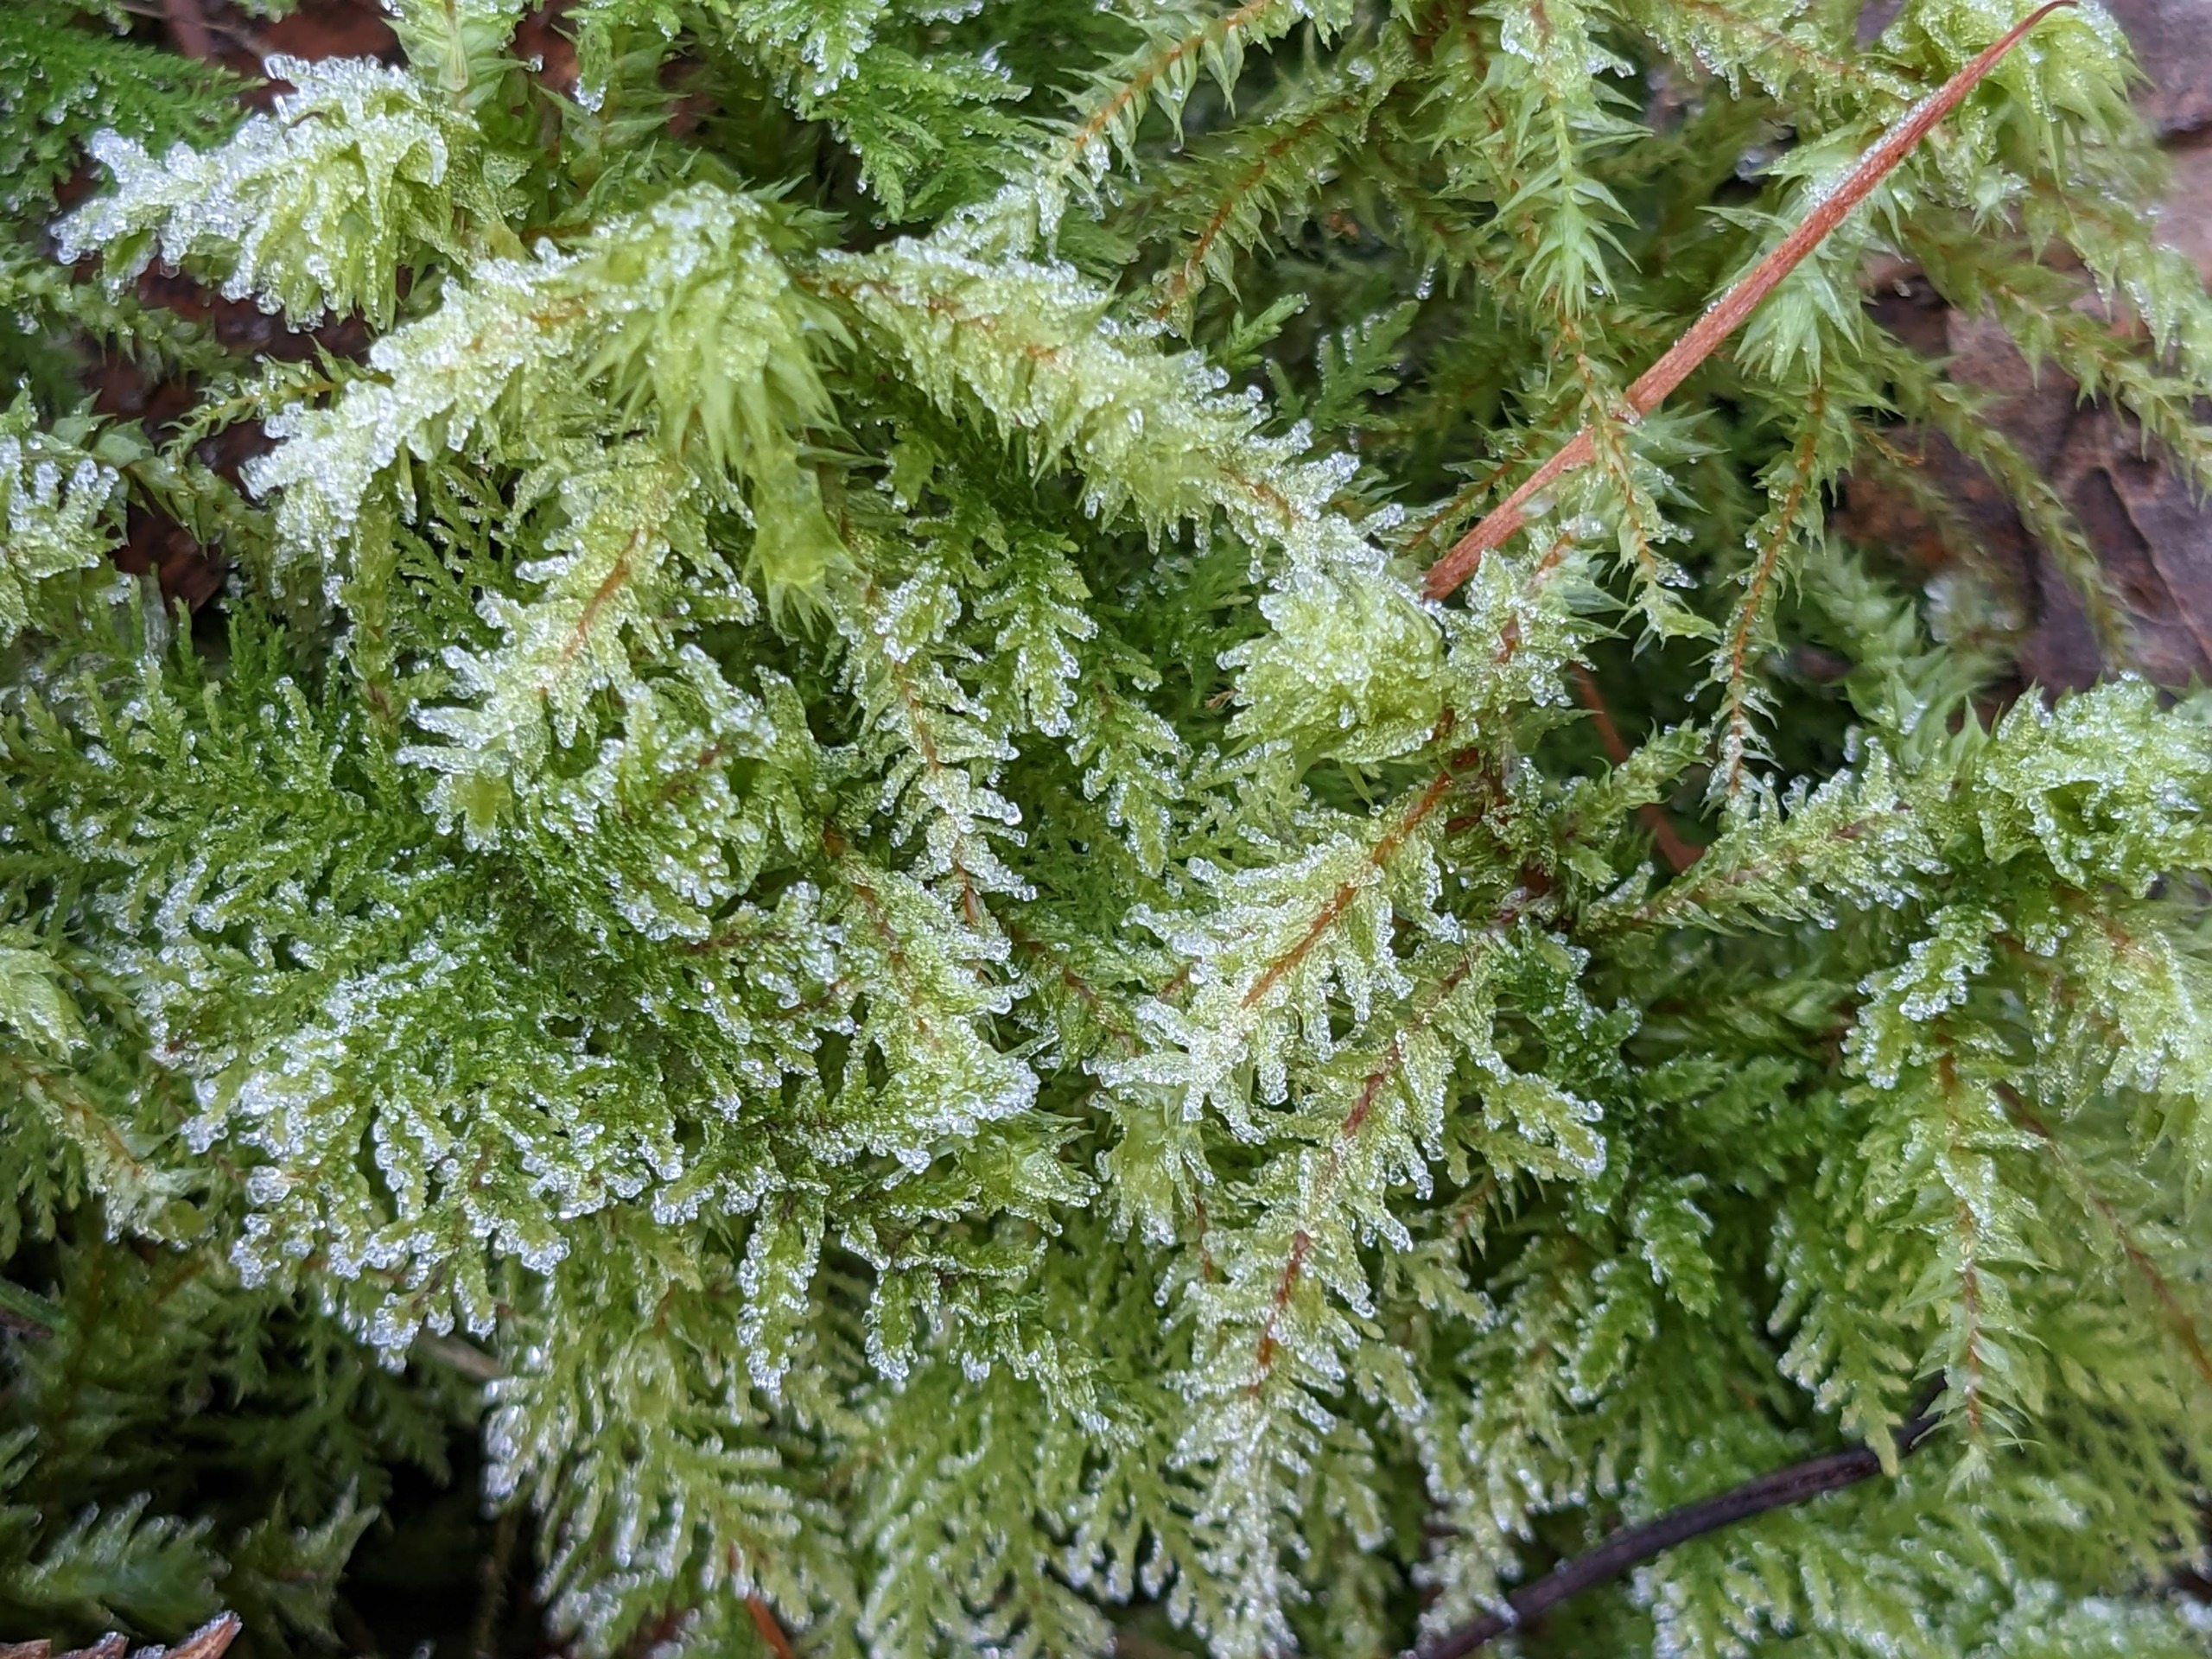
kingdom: Plantae
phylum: Bryophyta
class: Bryopsida
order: Hypnales
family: Hylocomiaceae
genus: Hylocomiadelphus
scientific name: Hylocomiadelphus triquetrus
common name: Stor kransemos
